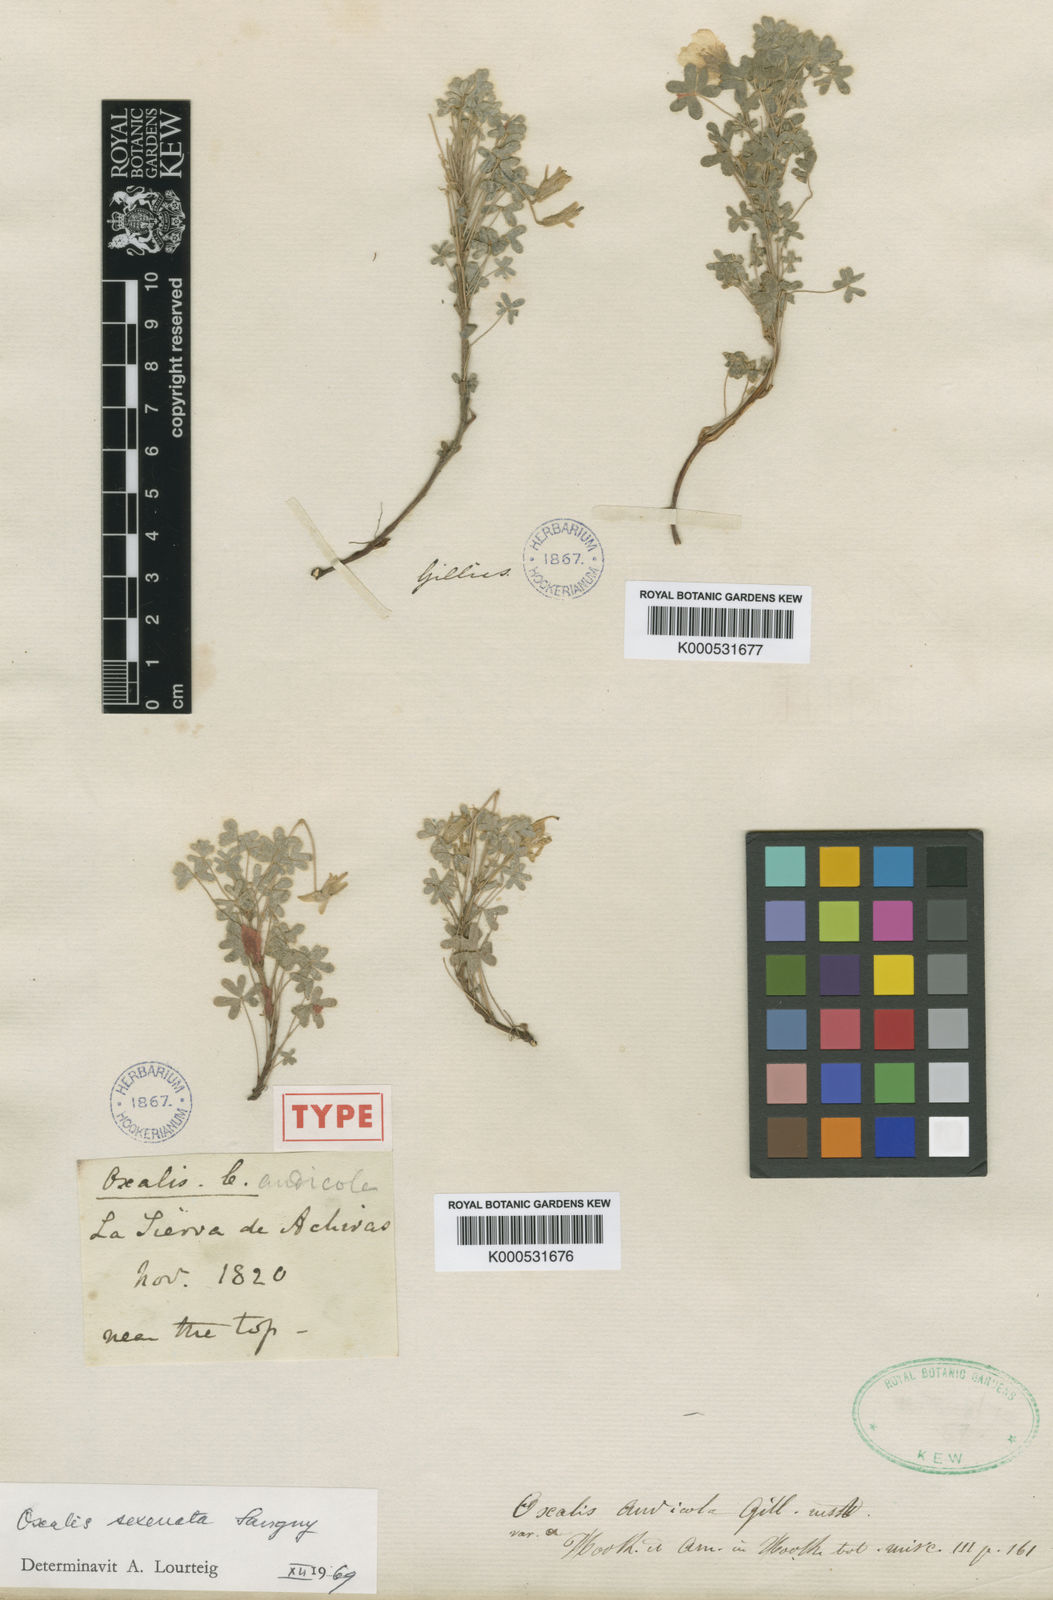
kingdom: Plantae
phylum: Tracheophyta
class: Magnoliopsida
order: Oxalidales
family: Oxalidaceae
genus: Oxalis
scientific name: Oxalis conorrhiza
